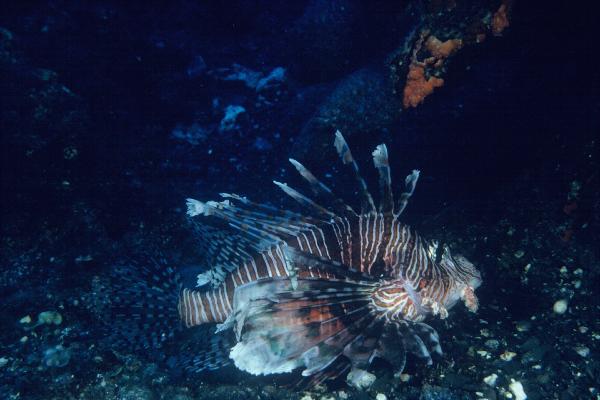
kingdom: Animalia
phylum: Chordata
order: Scorpaeniformes
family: Scorpaenidae
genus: Pterois
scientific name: Pterois volitans
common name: Lionfish
